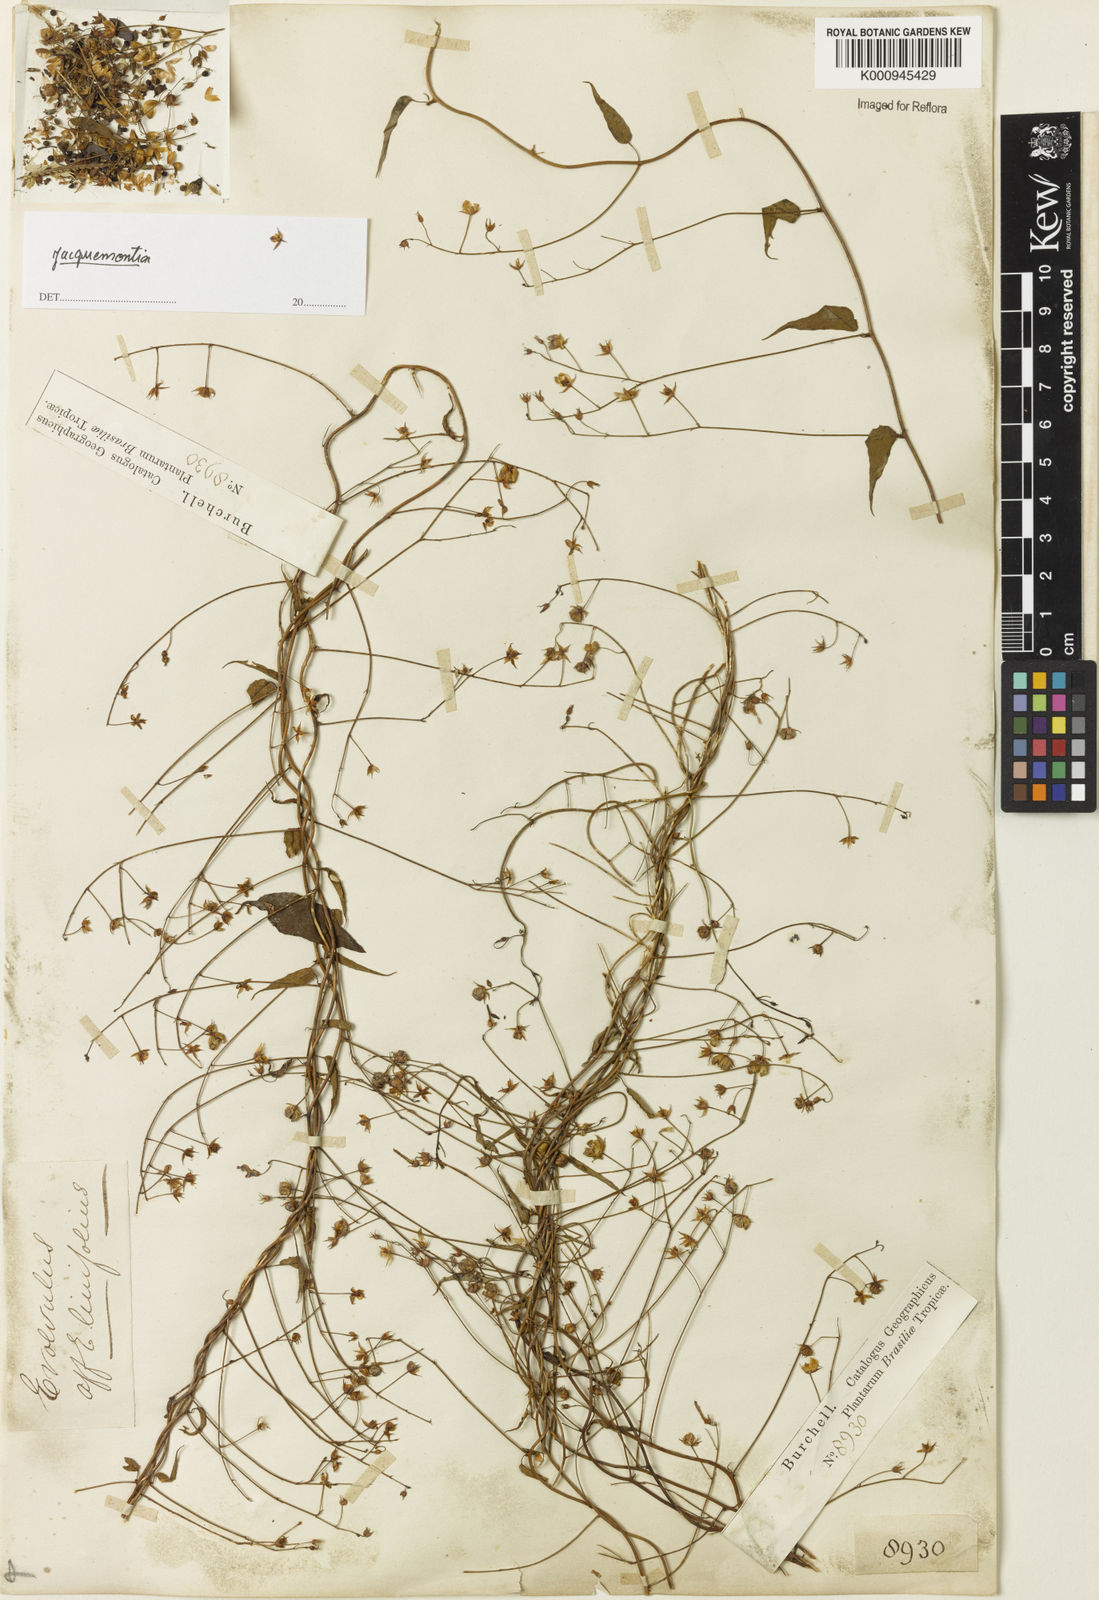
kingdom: Plantae
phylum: Tracheophyta
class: Magnoliopsida
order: Solanales
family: Convolvulaceae
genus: Jacquemontia
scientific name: Jacquemontia
